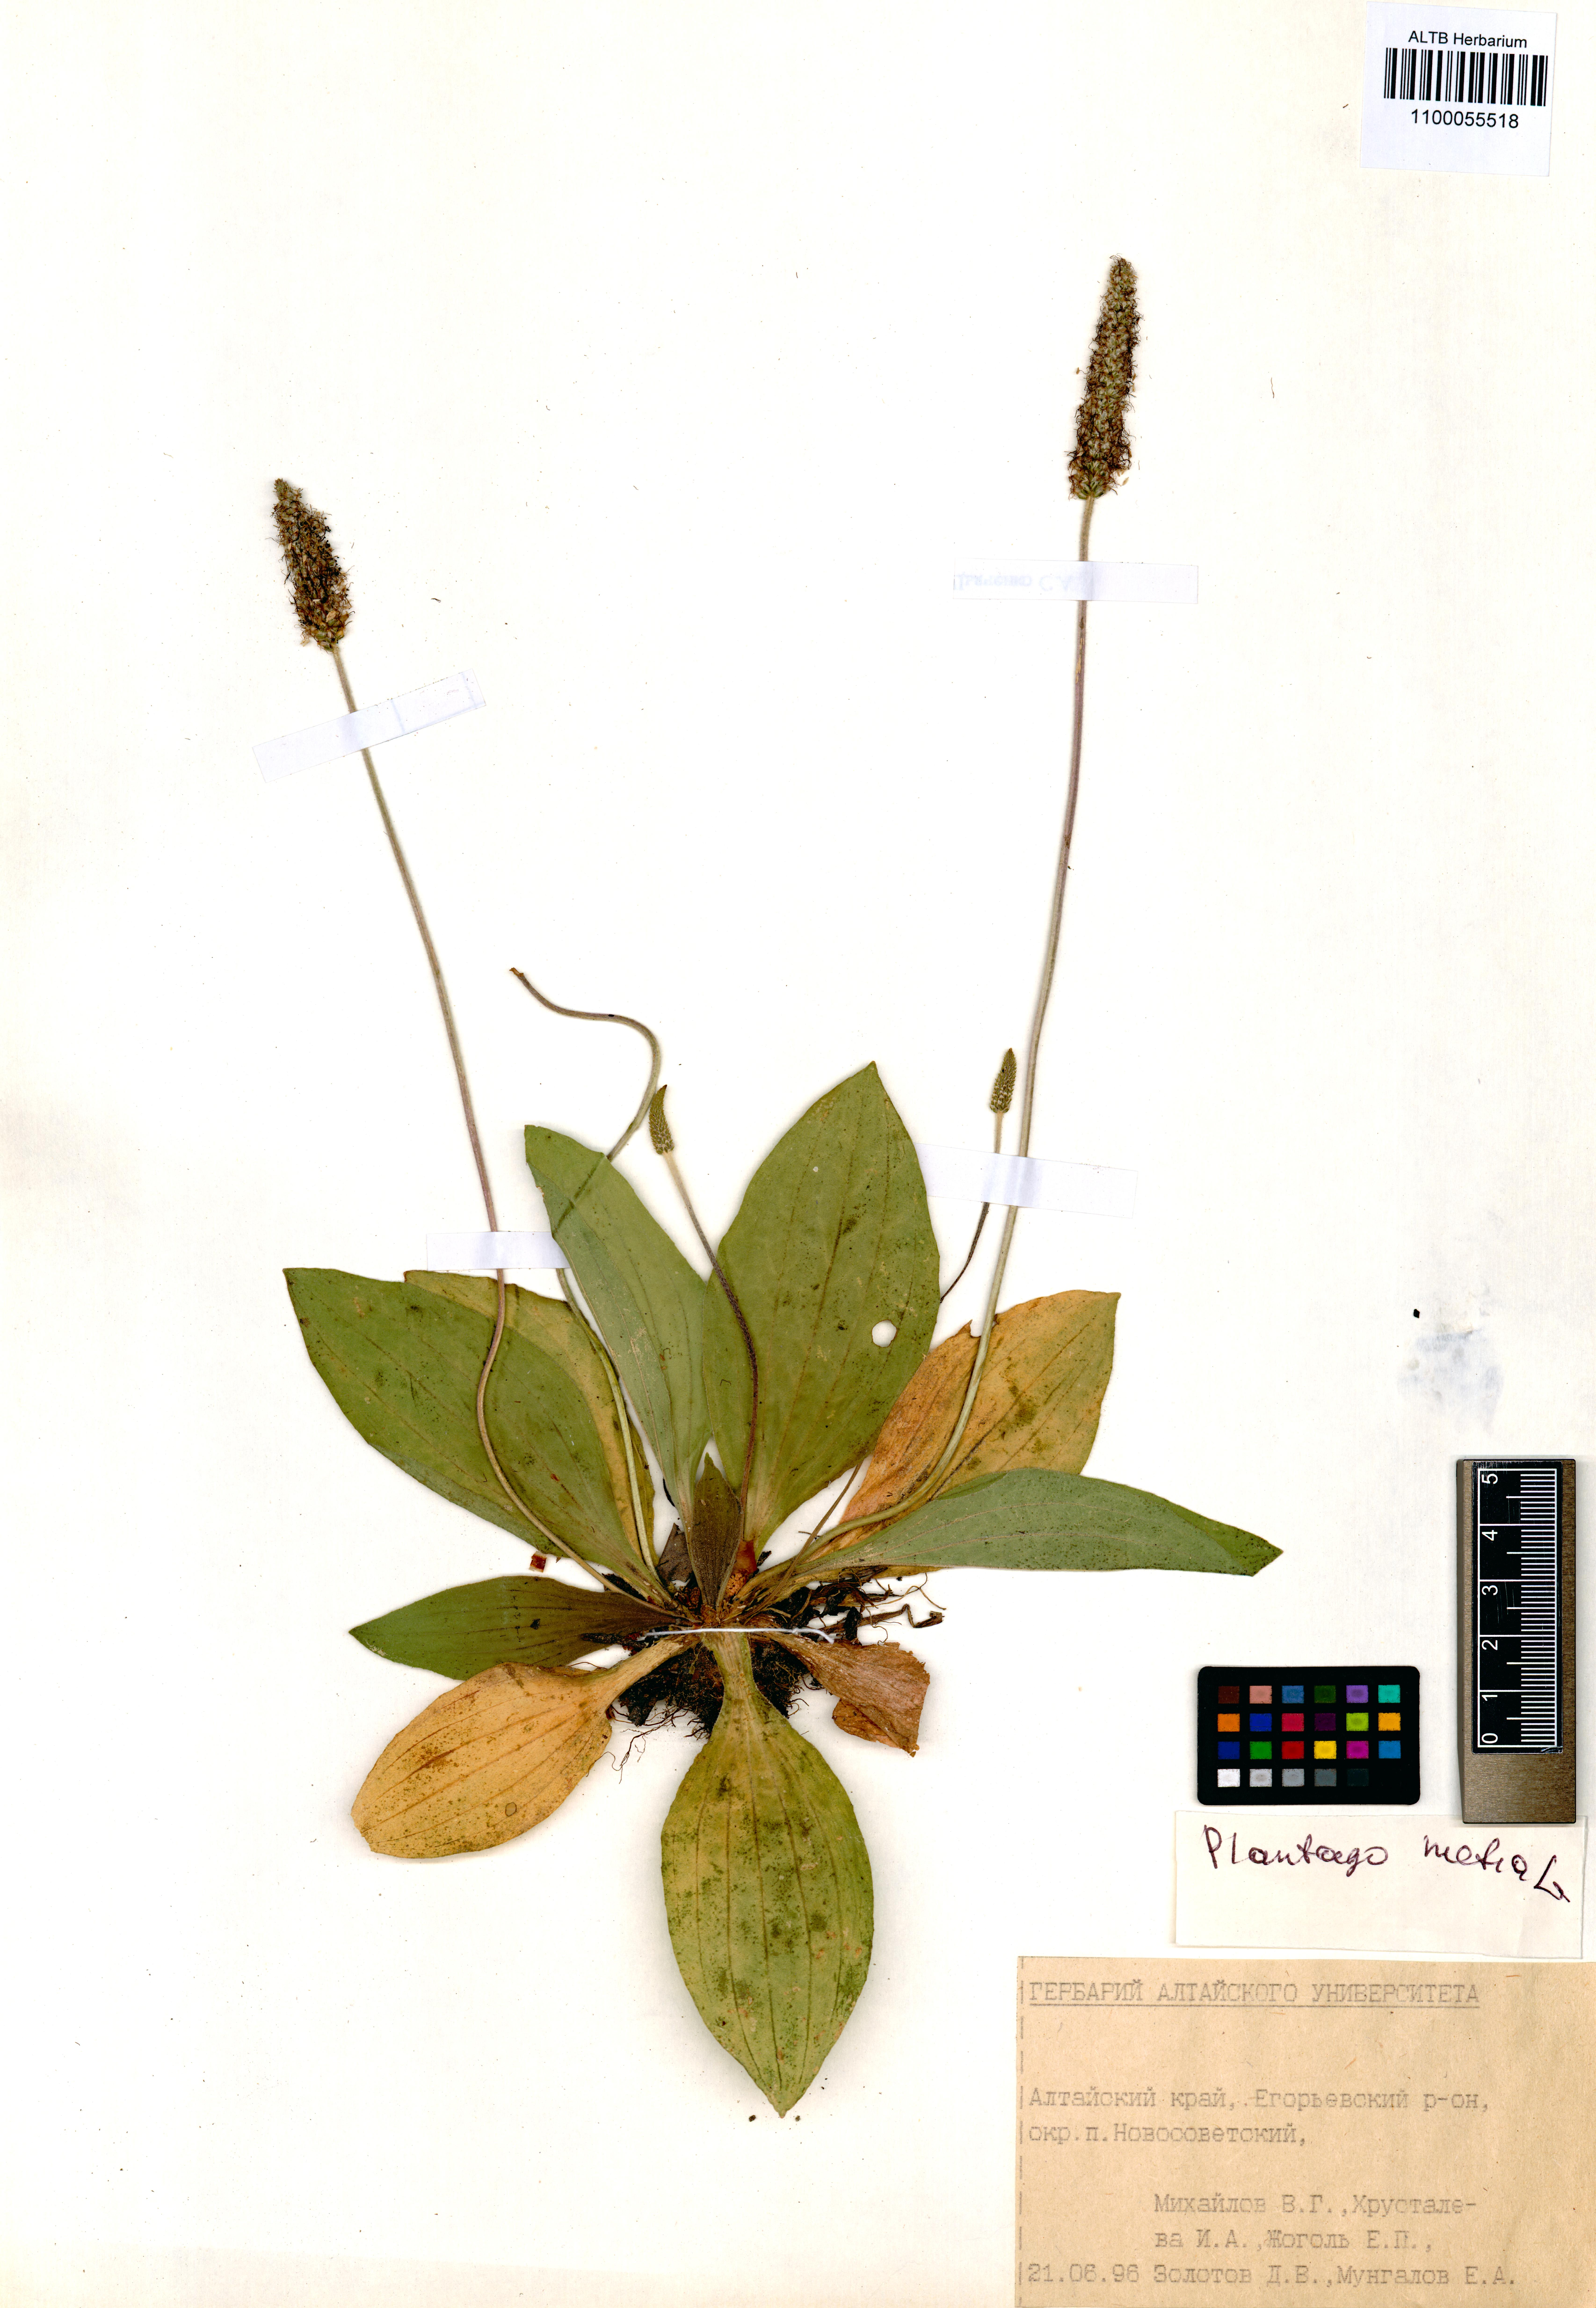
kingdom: Plantae
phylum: Tracheophyta
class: Magnoliopsida
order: Lamiales
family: Plantaginaceae
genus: Plantago
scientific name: Plantago media
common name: Hoary plantain
